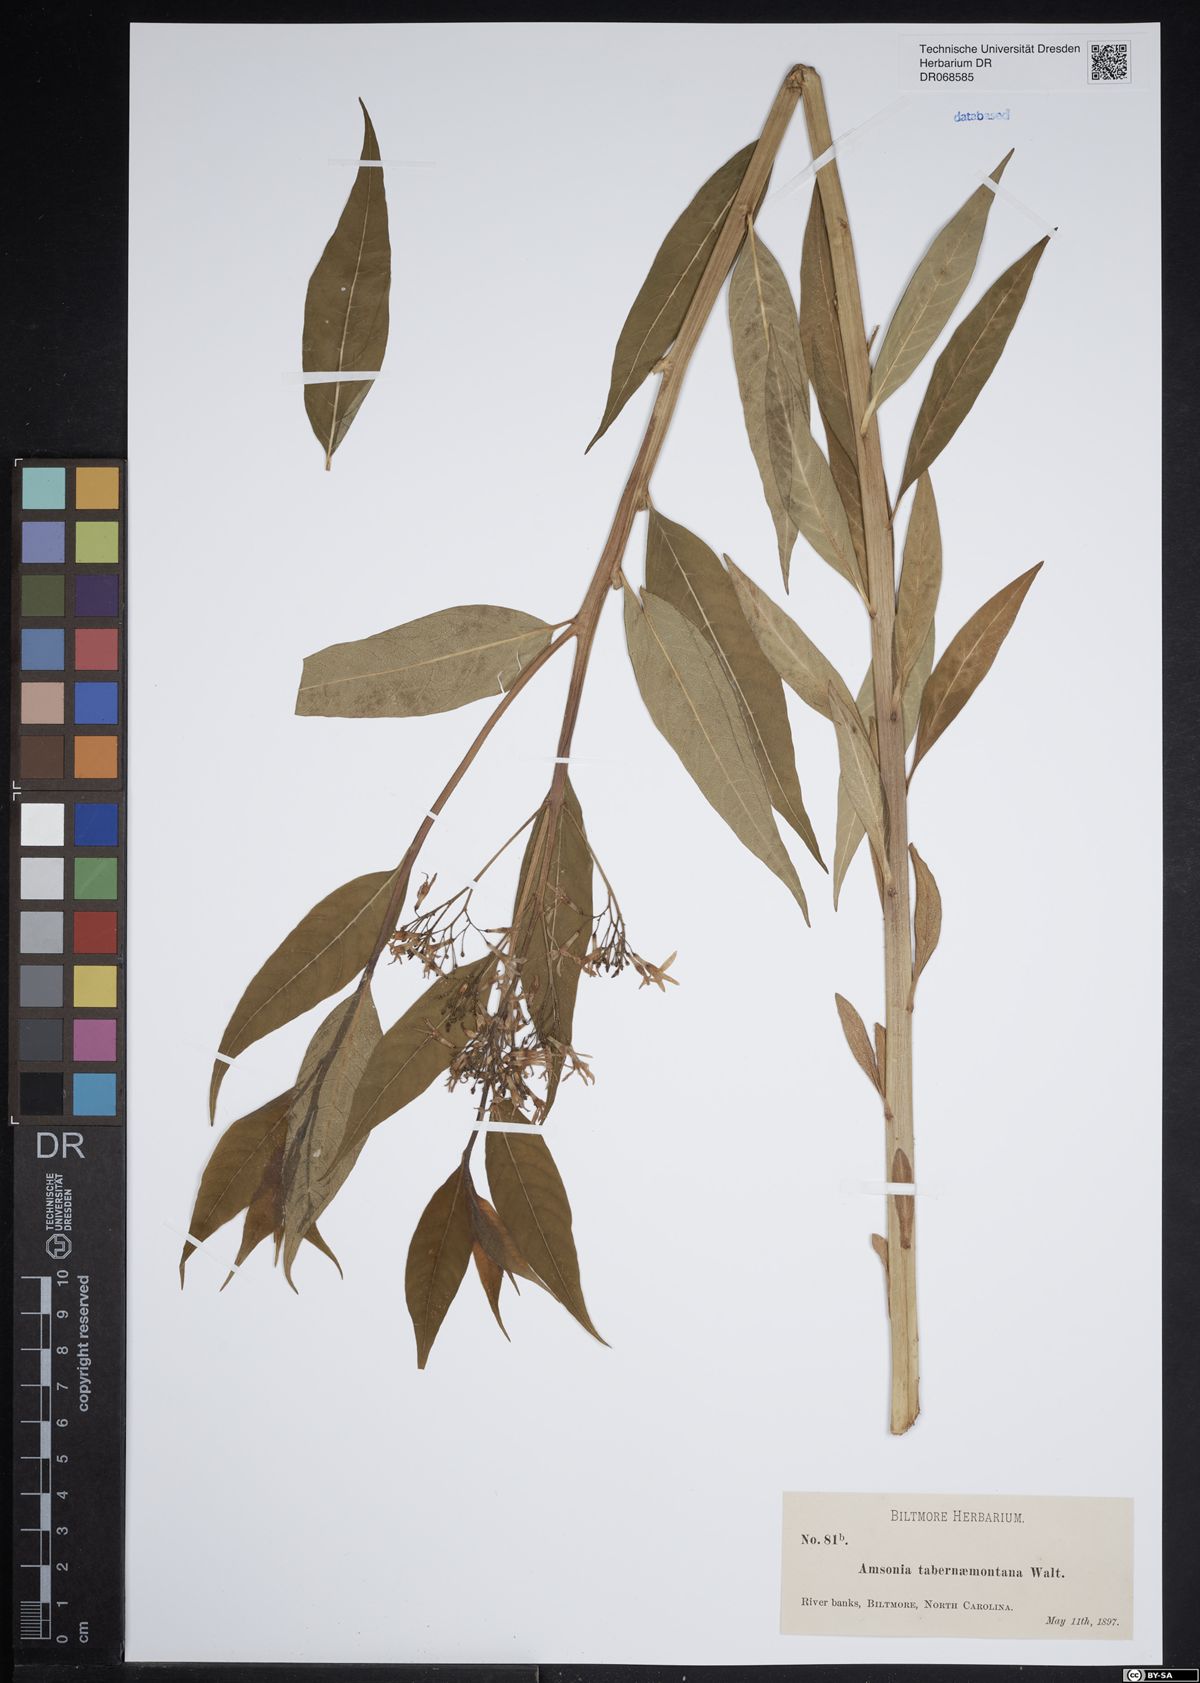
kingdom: Plantae
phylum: Tracheophyta
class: Magnoliopsida
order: Gentianales
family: Apocynaceae
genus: Amsonia
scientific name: Amsonia tabernaemontana
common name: Texas-star
